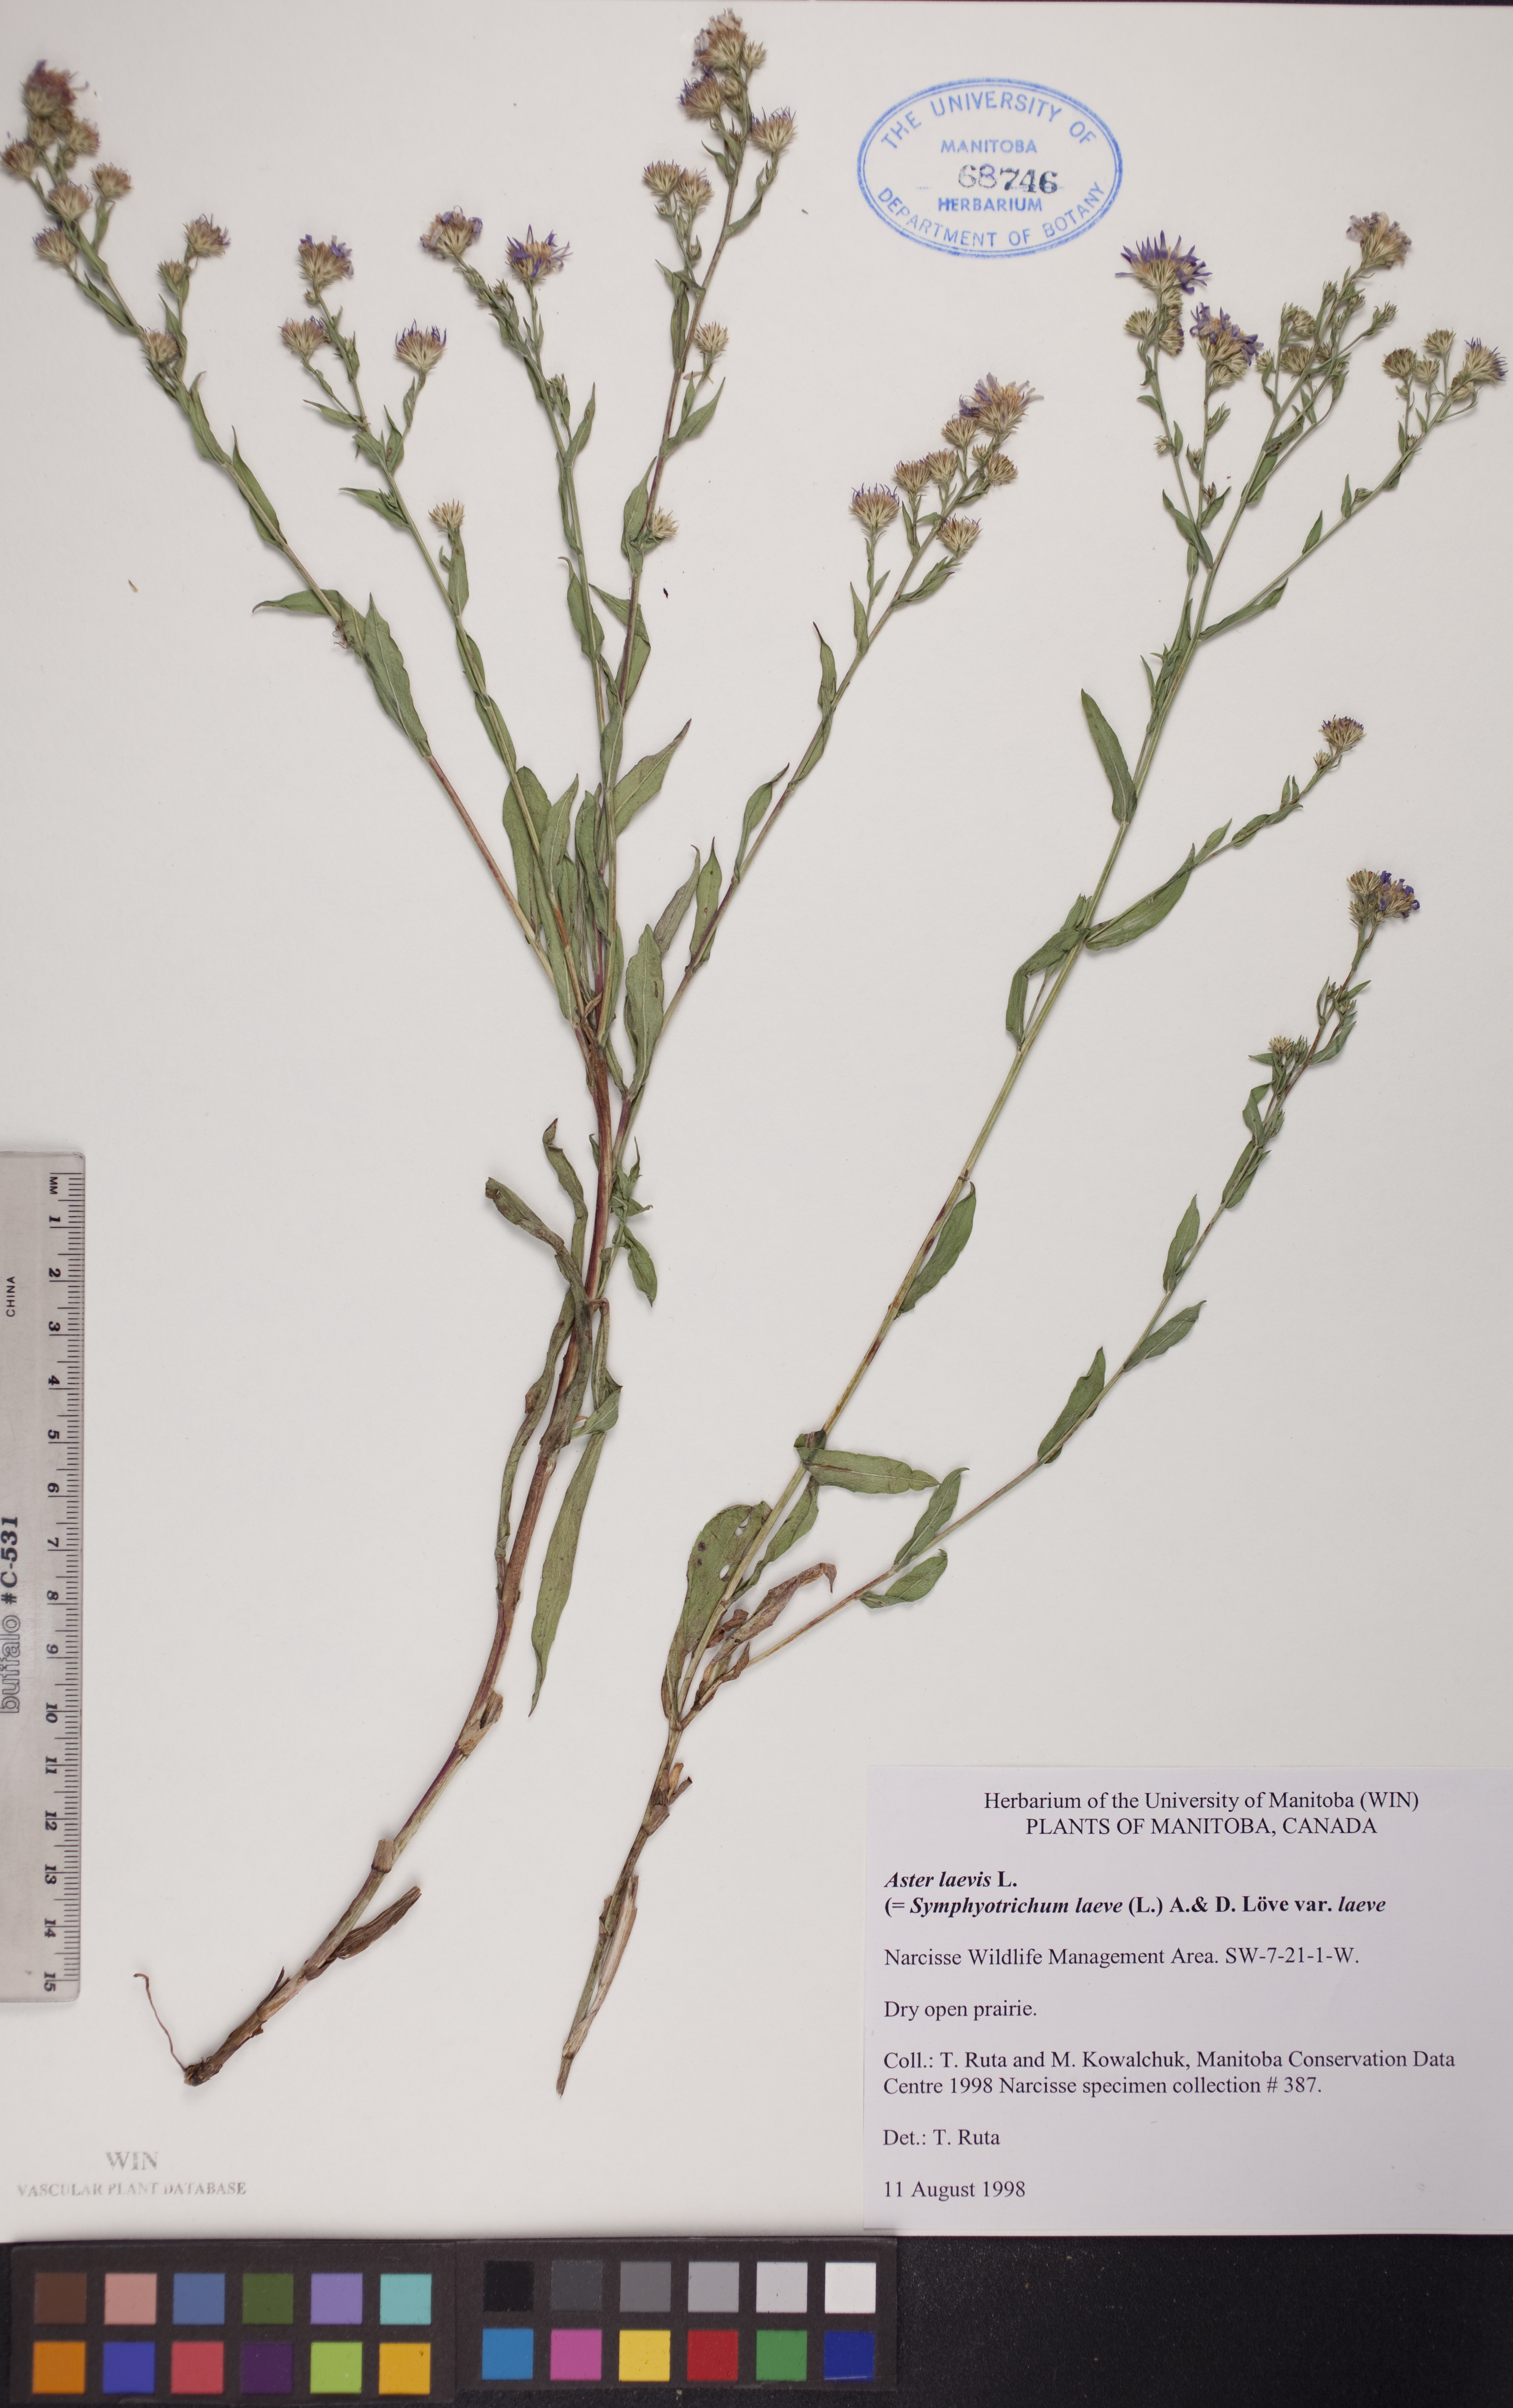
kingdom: Plantae
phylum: Tracheophyta
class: Magnoliopsida
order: Asterales
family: Asteraceae
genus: Symphyotrichum
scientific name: Symphyotrichum laeve
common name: Glaucous aster
